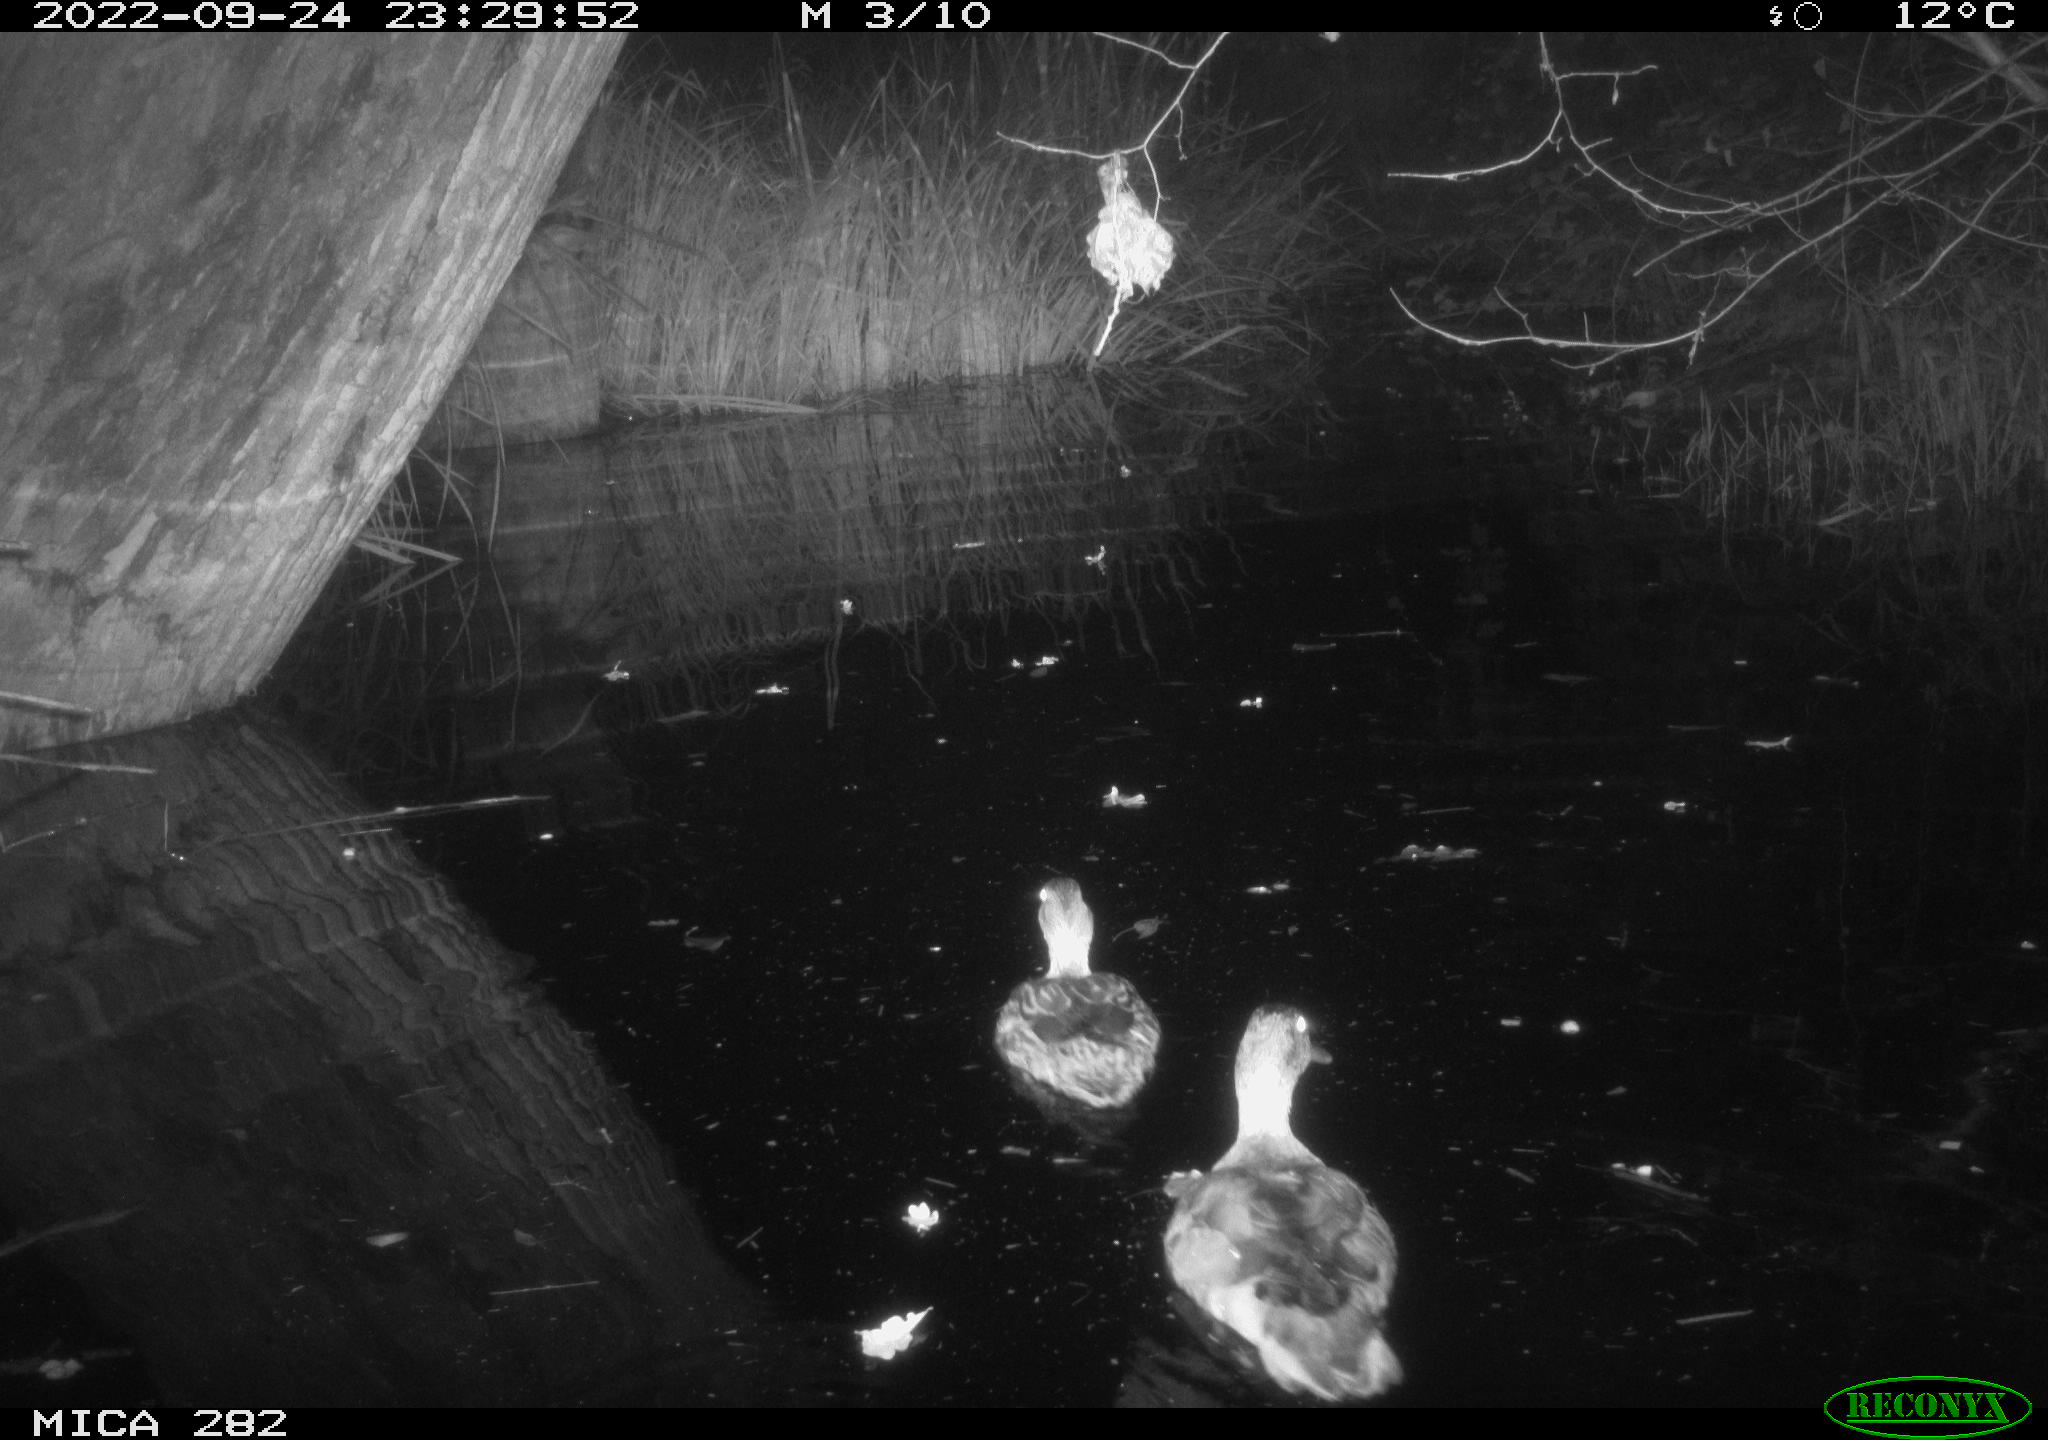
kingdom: Animalia
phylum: Chordata
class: Aves
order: Anseriformes
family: Anatidae
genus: Anas
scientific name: Anas
